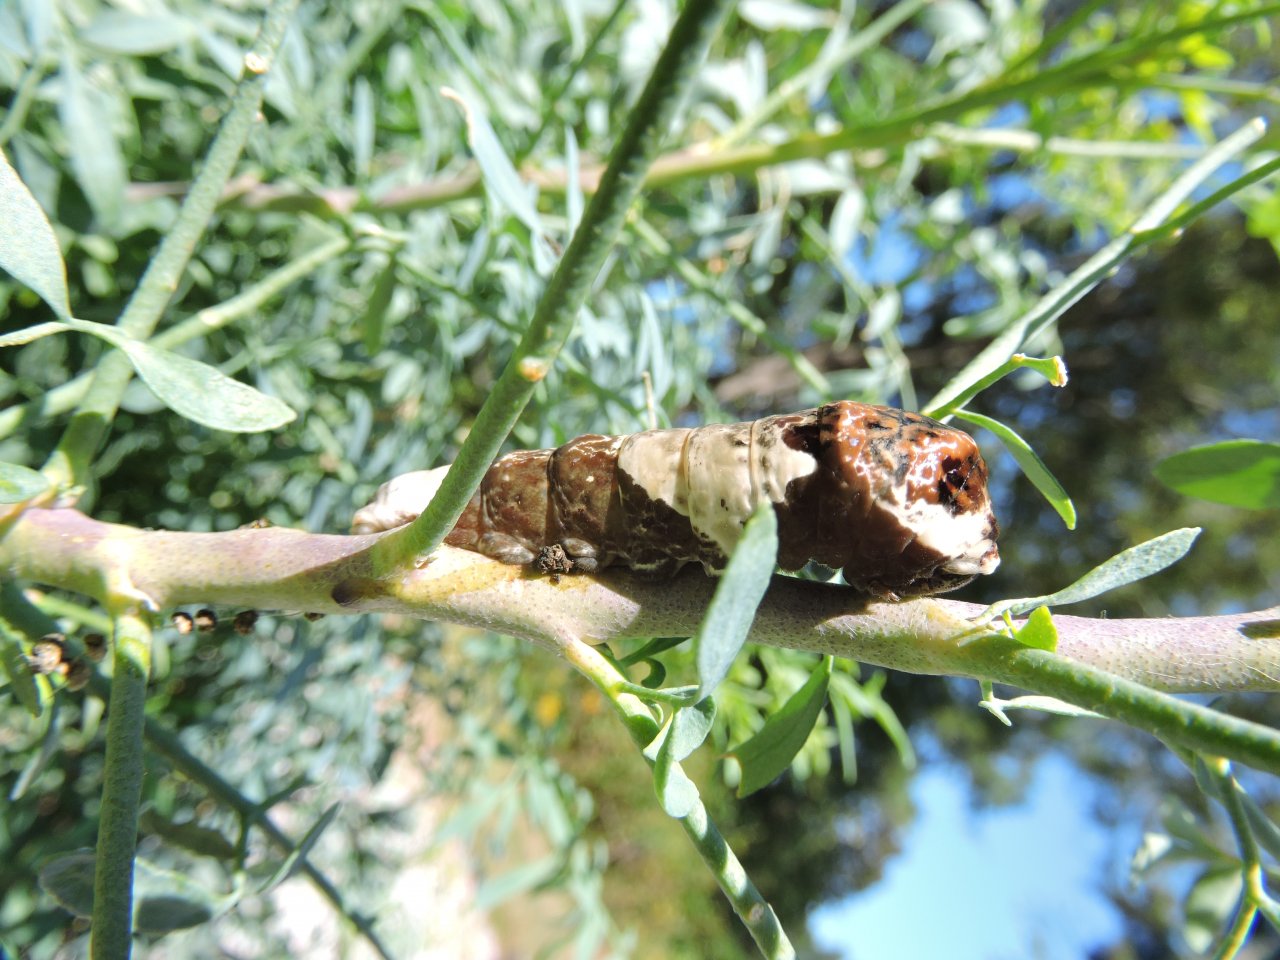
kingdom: Animalia
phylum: Arthropoda
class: Insecta
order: Lepidoptera
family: Papilionidae
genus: Papilio
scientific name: Papilio cresphontes
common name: Eastern Giant Swallowtail
